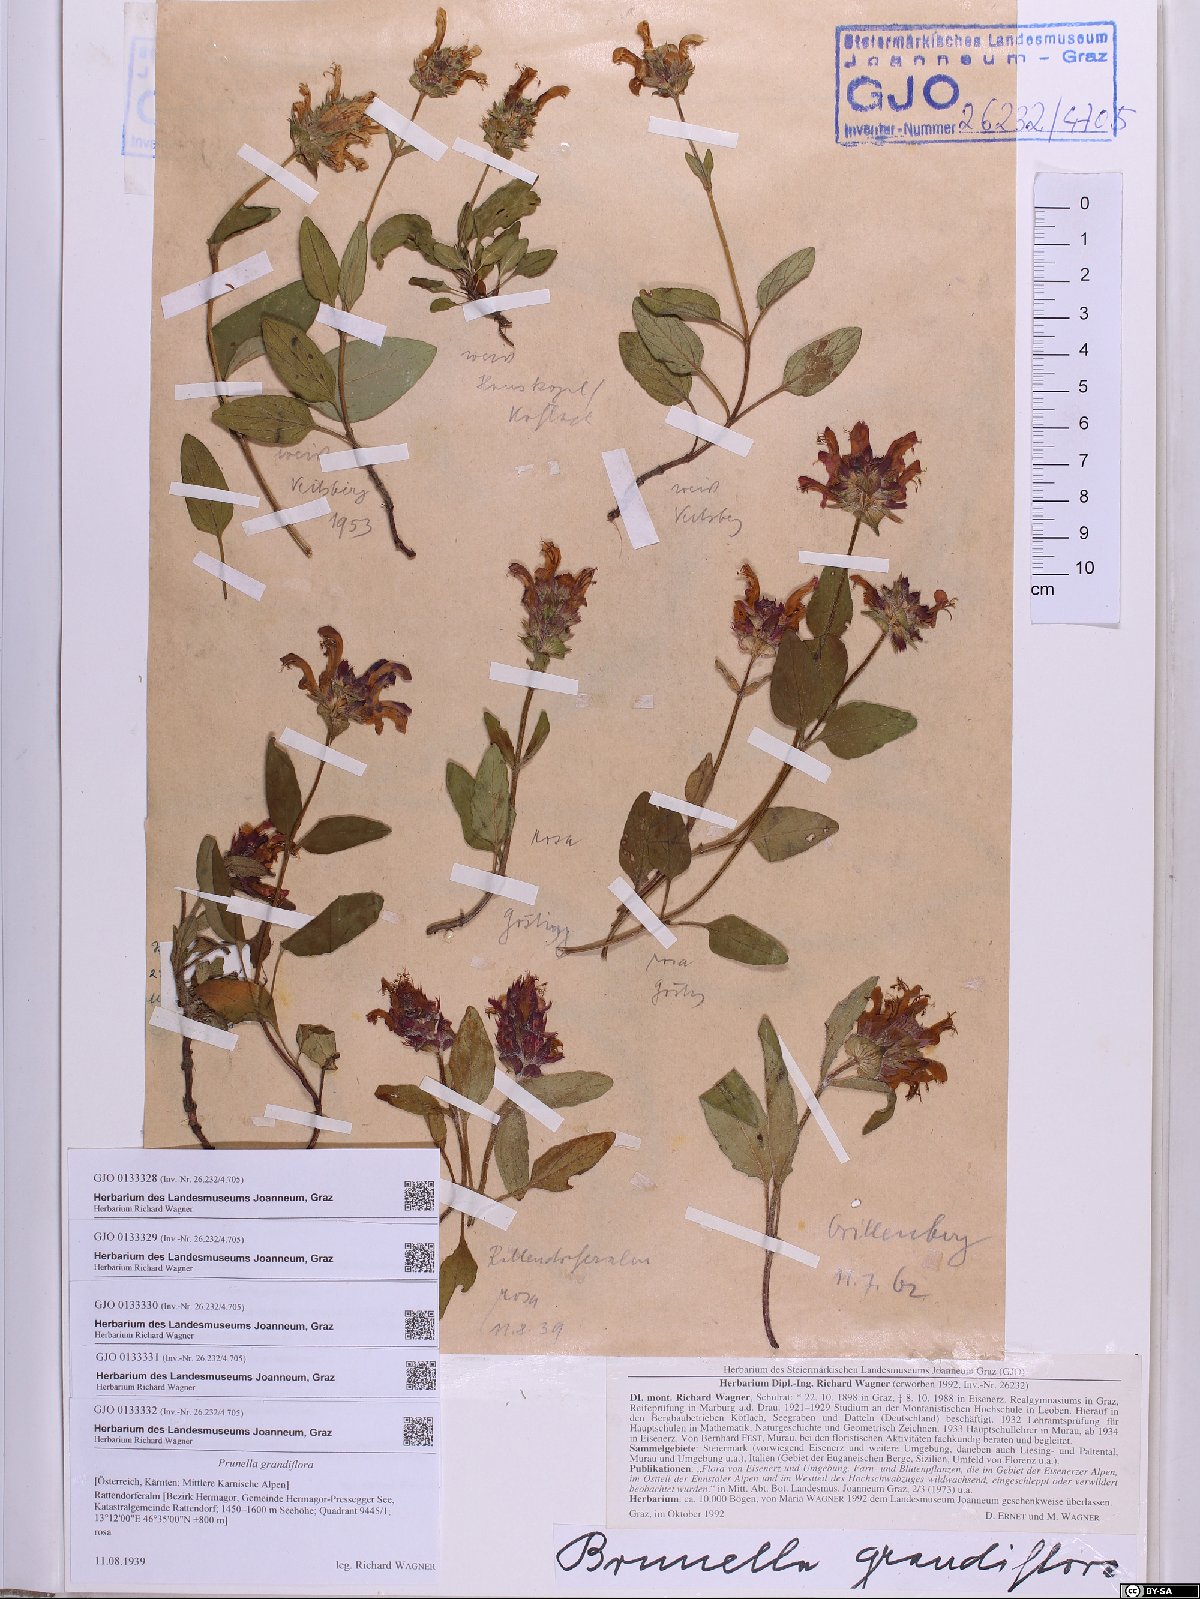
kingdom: Plantae
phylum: Tracheophyta
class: Magnoliopsida
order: Lamiales
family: Lamiaceae
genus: Prunella
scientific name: Prunella grandiflora
